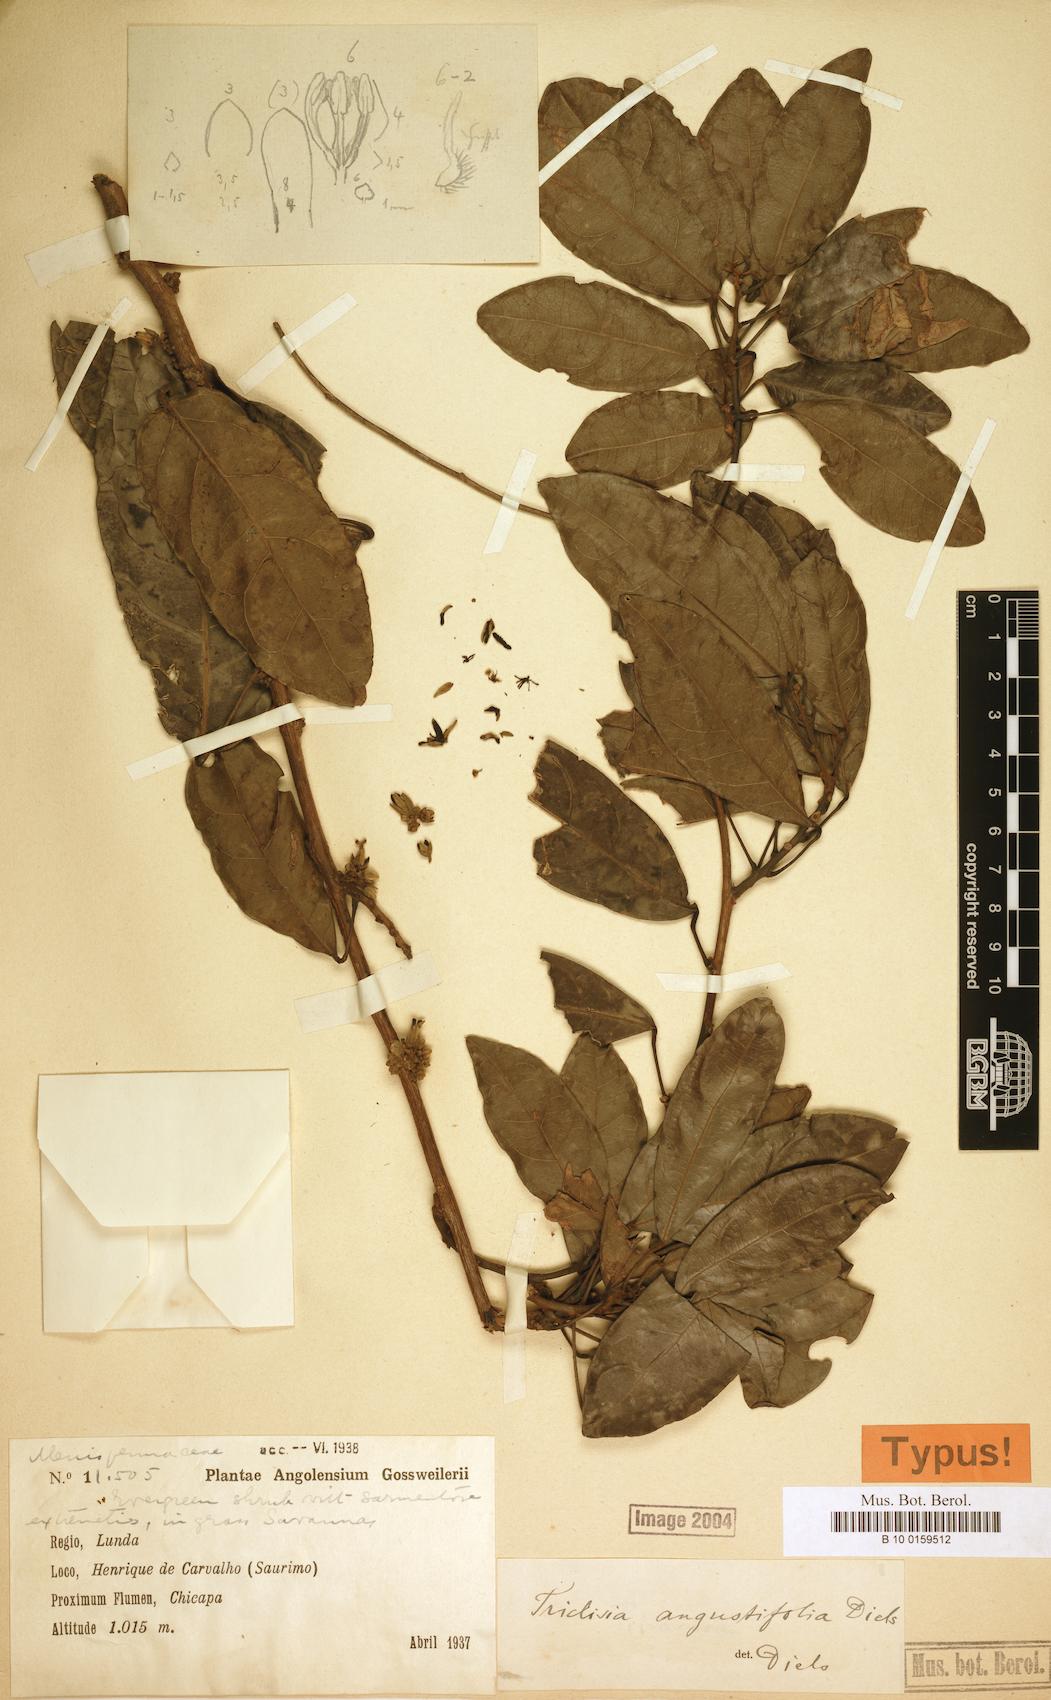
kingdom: Plantae
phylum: Tracheophyta
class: Magnoliopsida
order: Ranunculales
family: Menispermaceae
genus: Triclisia
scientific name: Triclisia angustifolia
